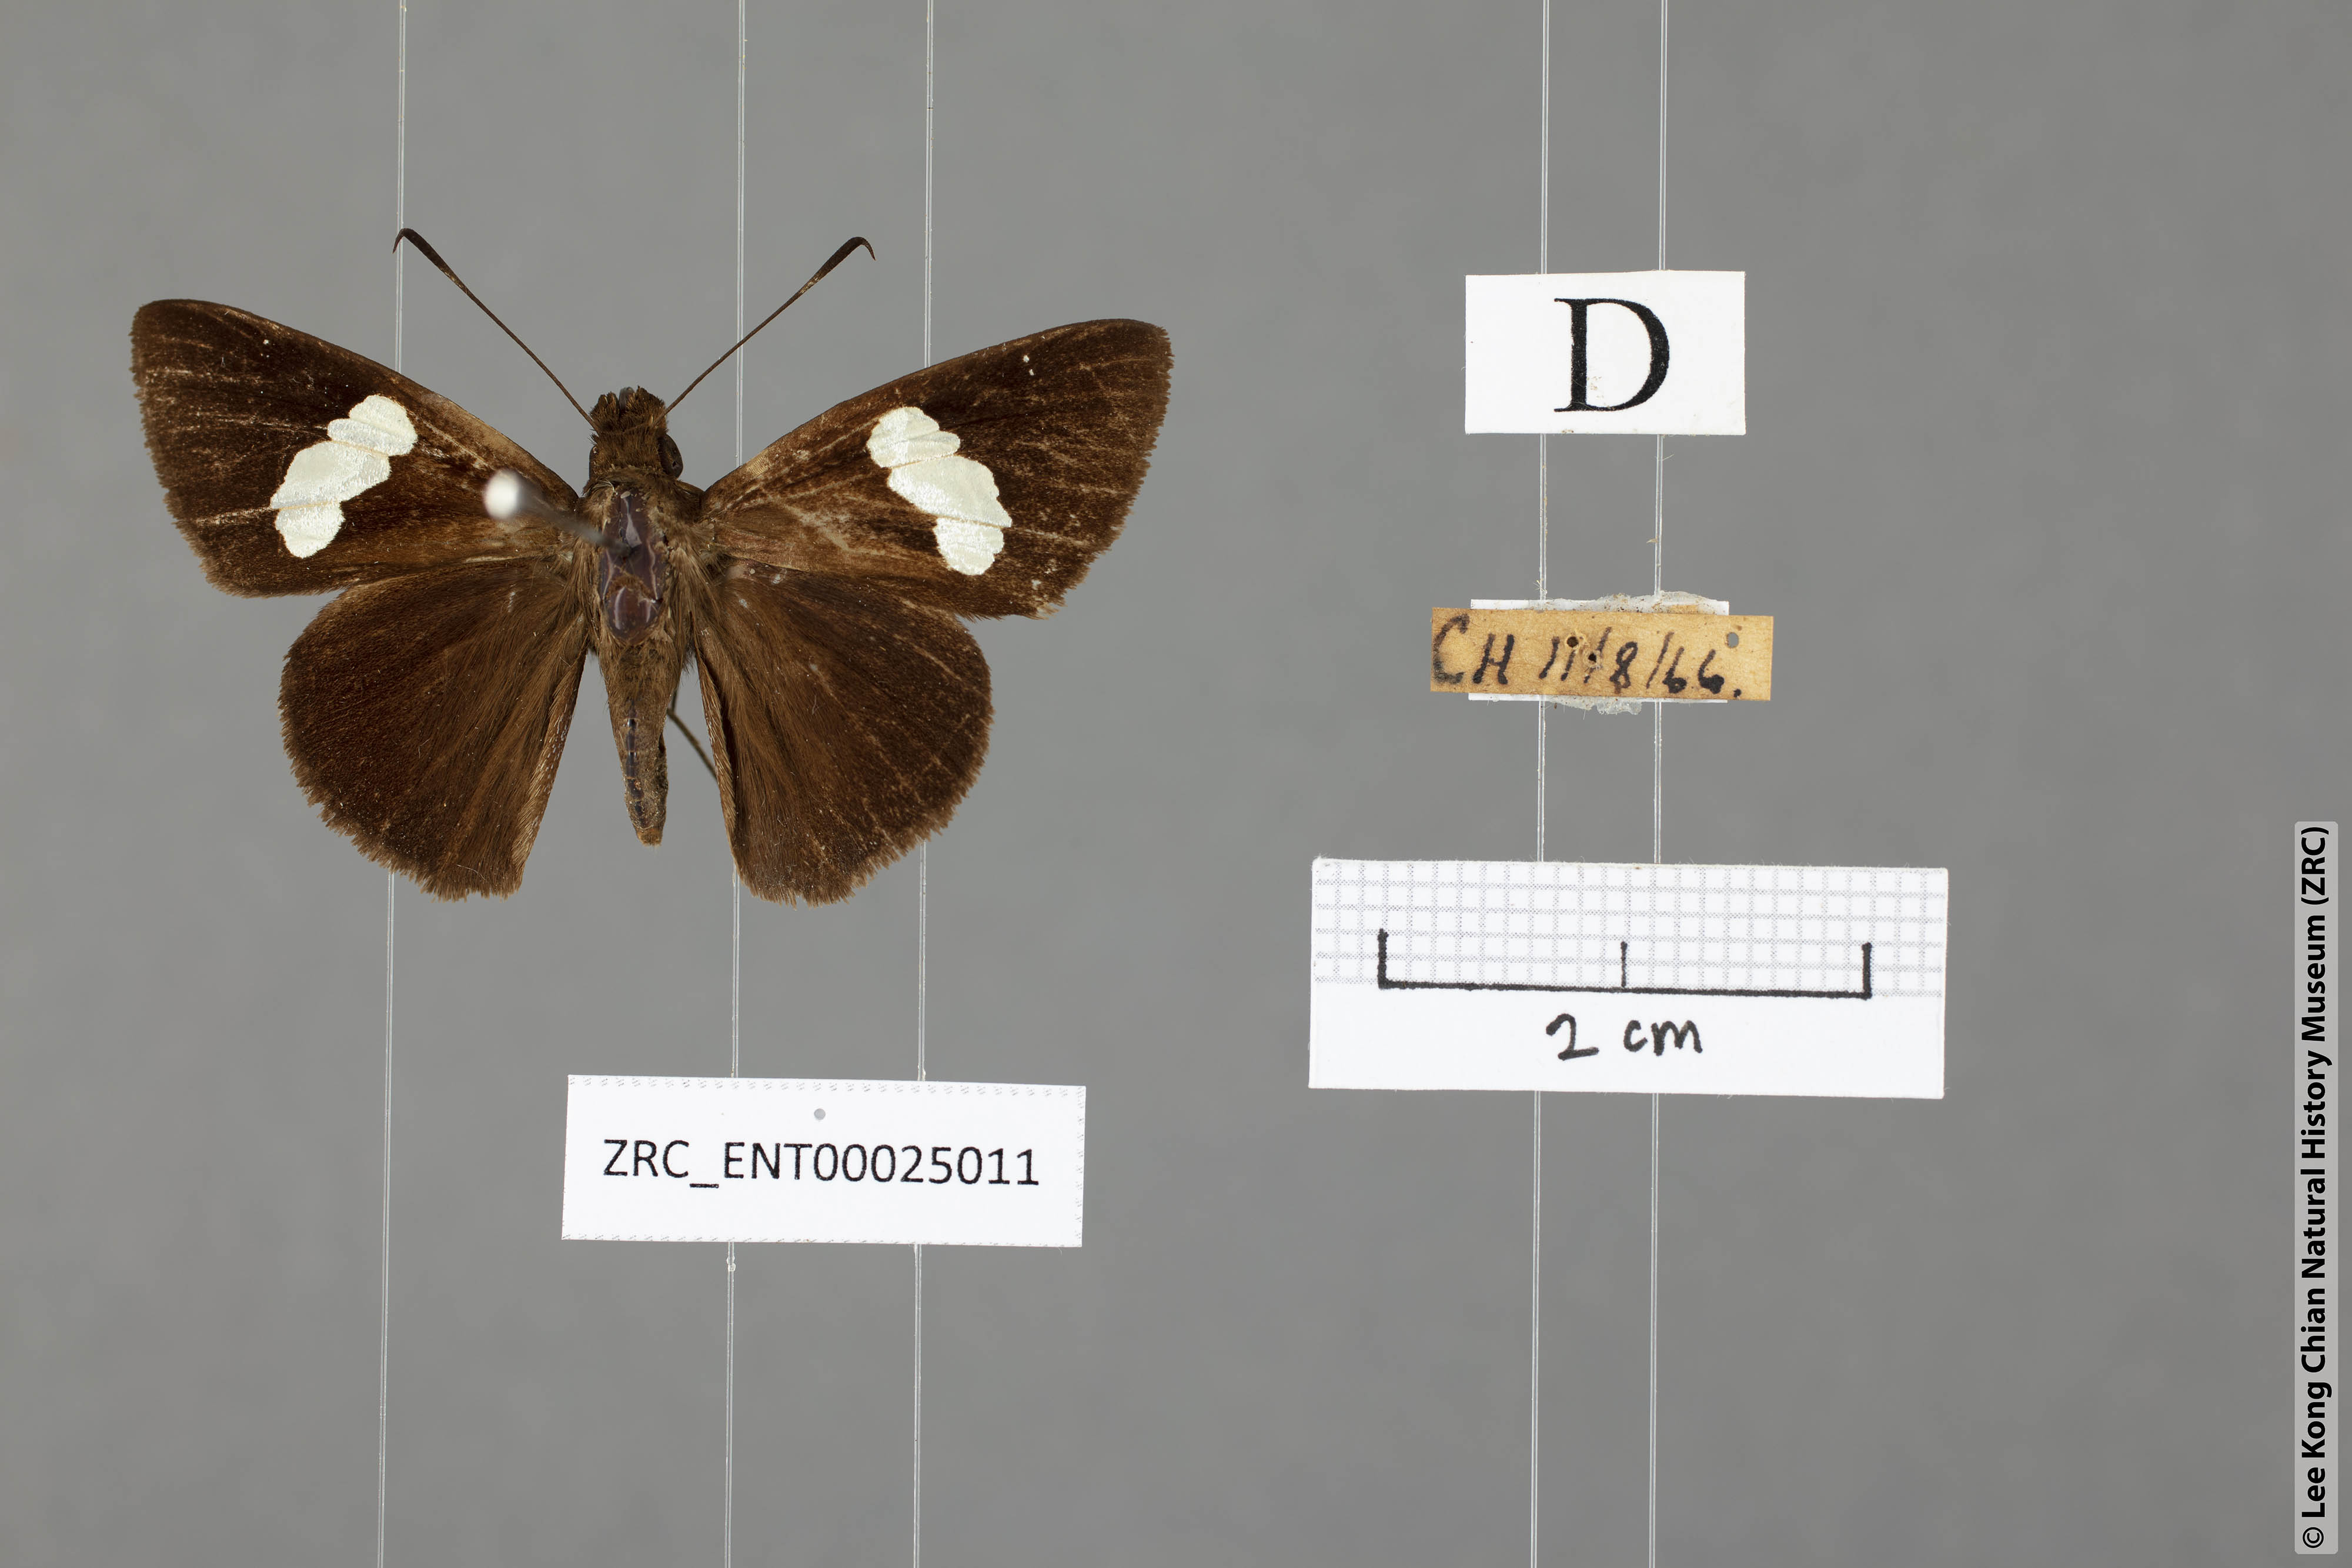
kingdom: Animalia
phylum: Arthropoda
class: Insecta
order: Lepidoptera
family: Hesperiidae
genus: Notocrypta
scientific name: Notocrypta feisthamelii
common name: Spotted demon
